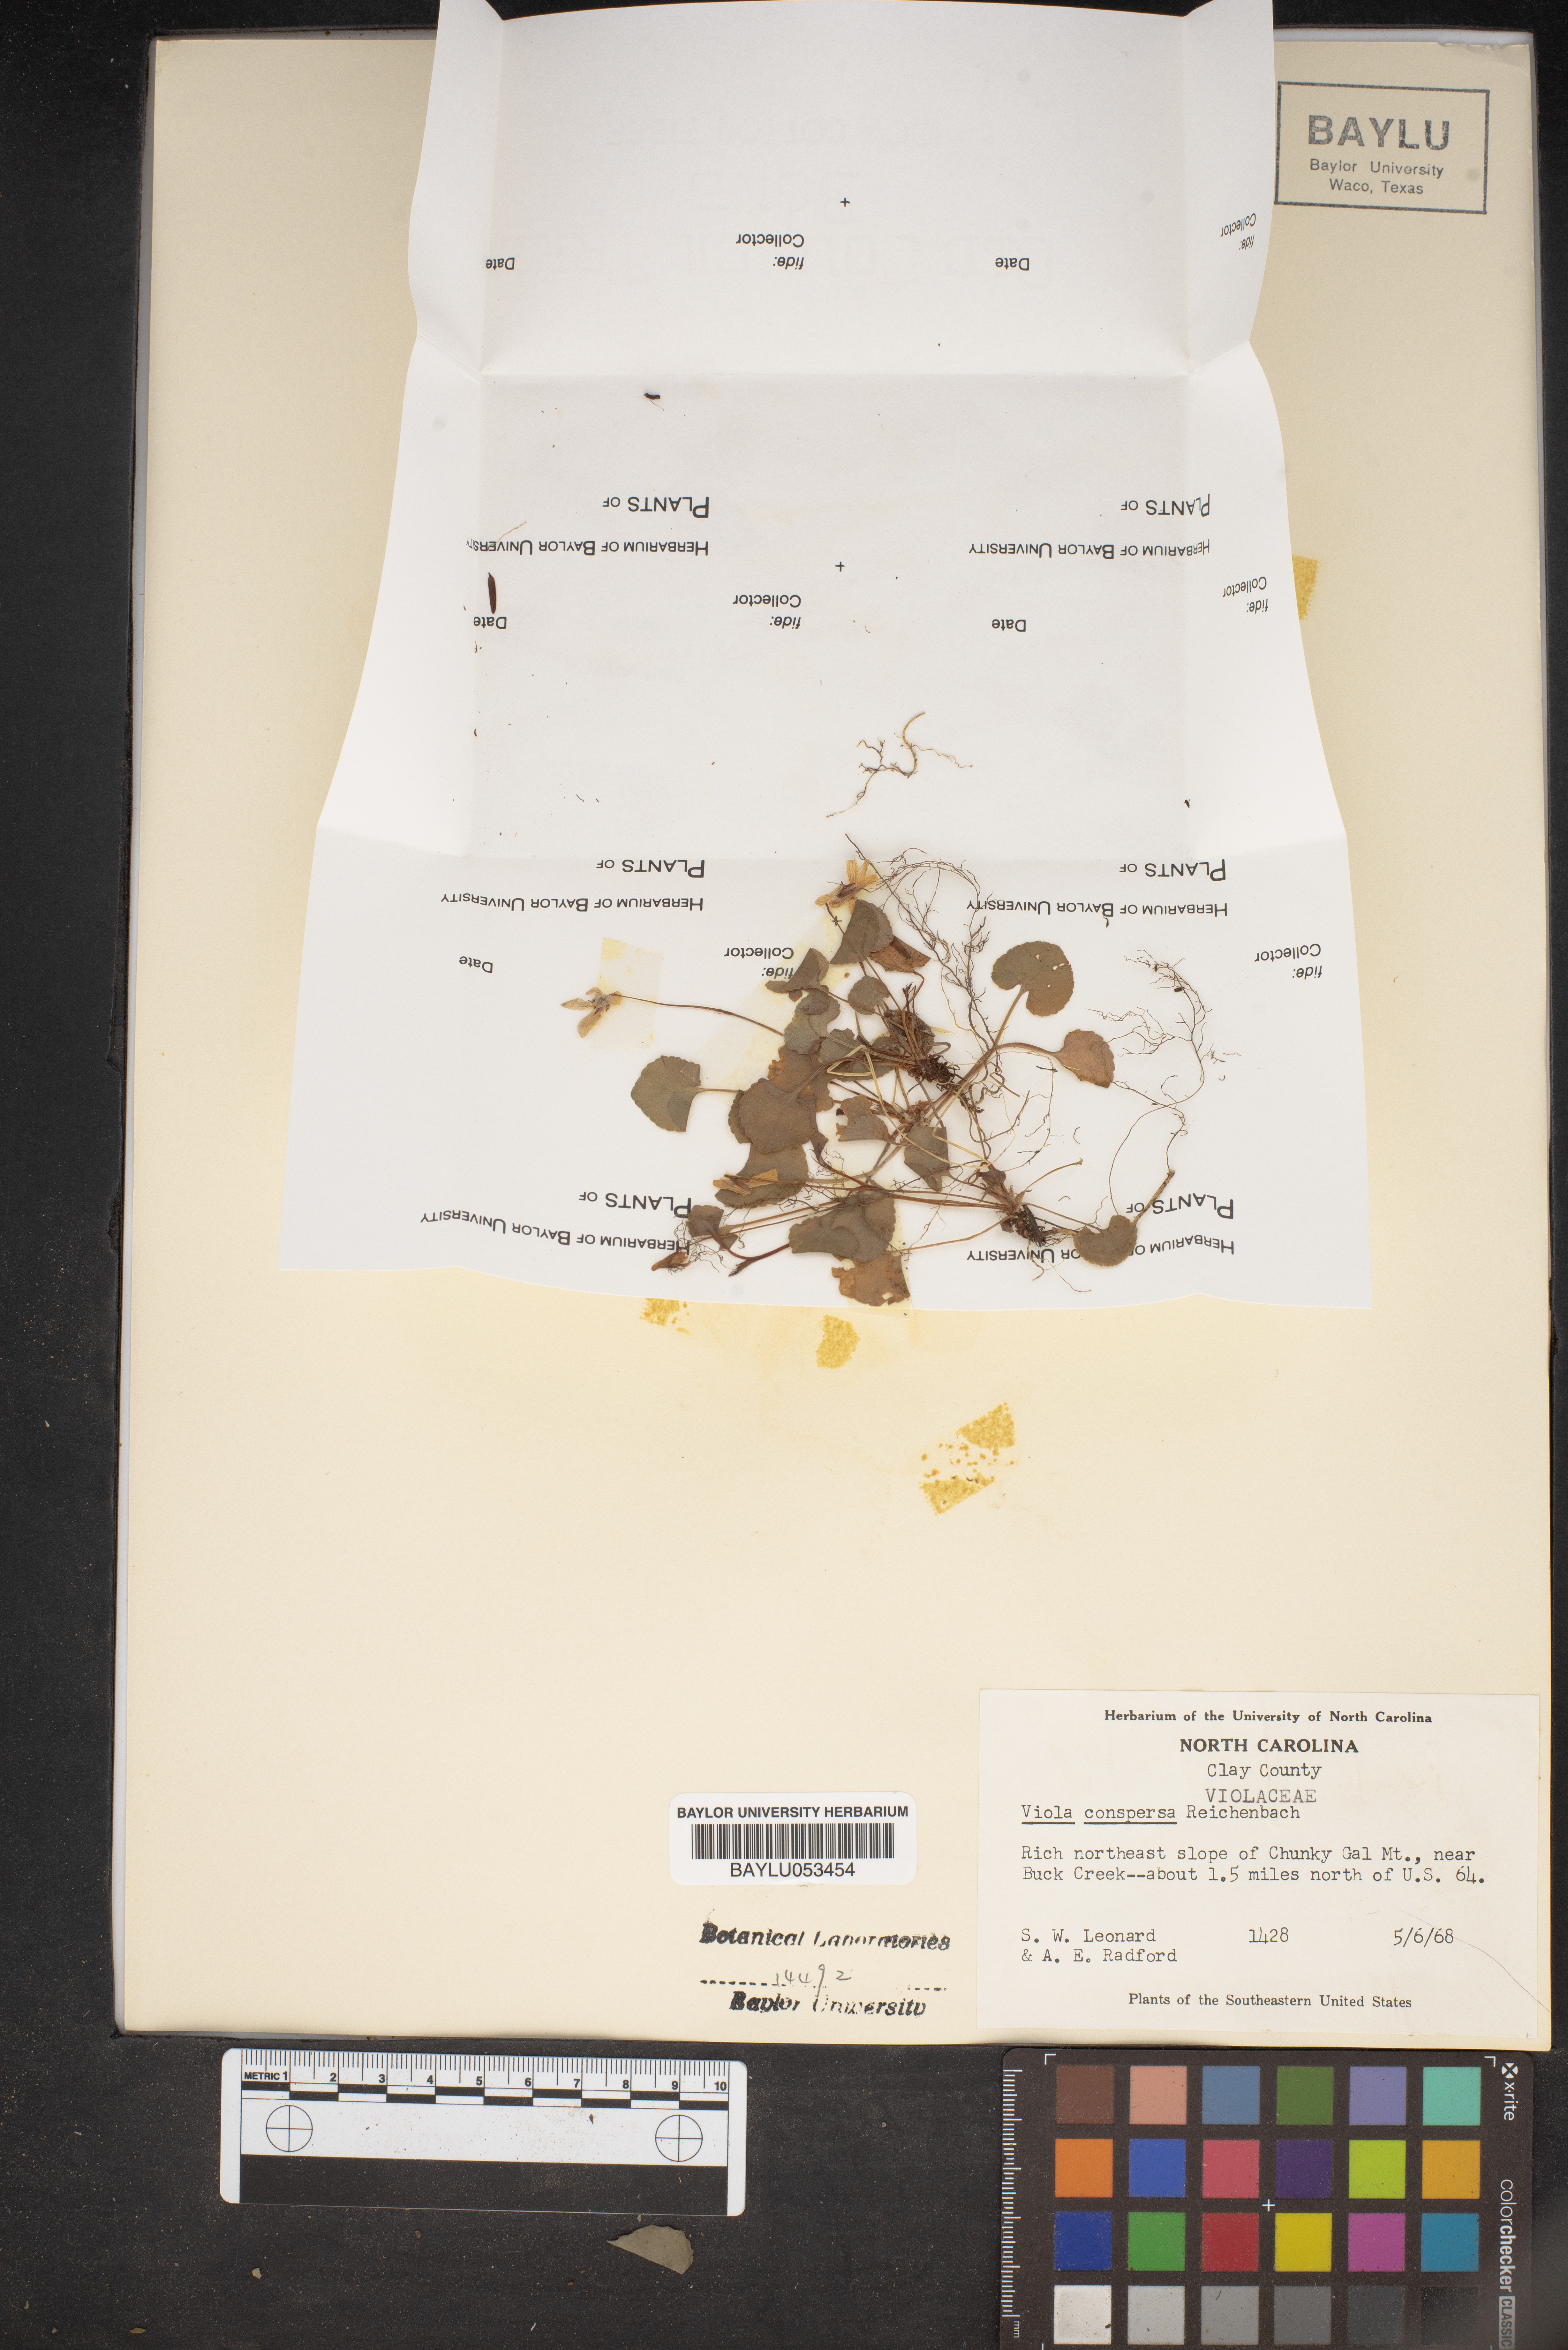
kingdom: Plantae
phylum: Tracheophyta
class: Magnoliopsida
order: Malpighiales
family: Violaceae
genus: Viola
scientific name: Viola labradorica
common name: Labrador violet
